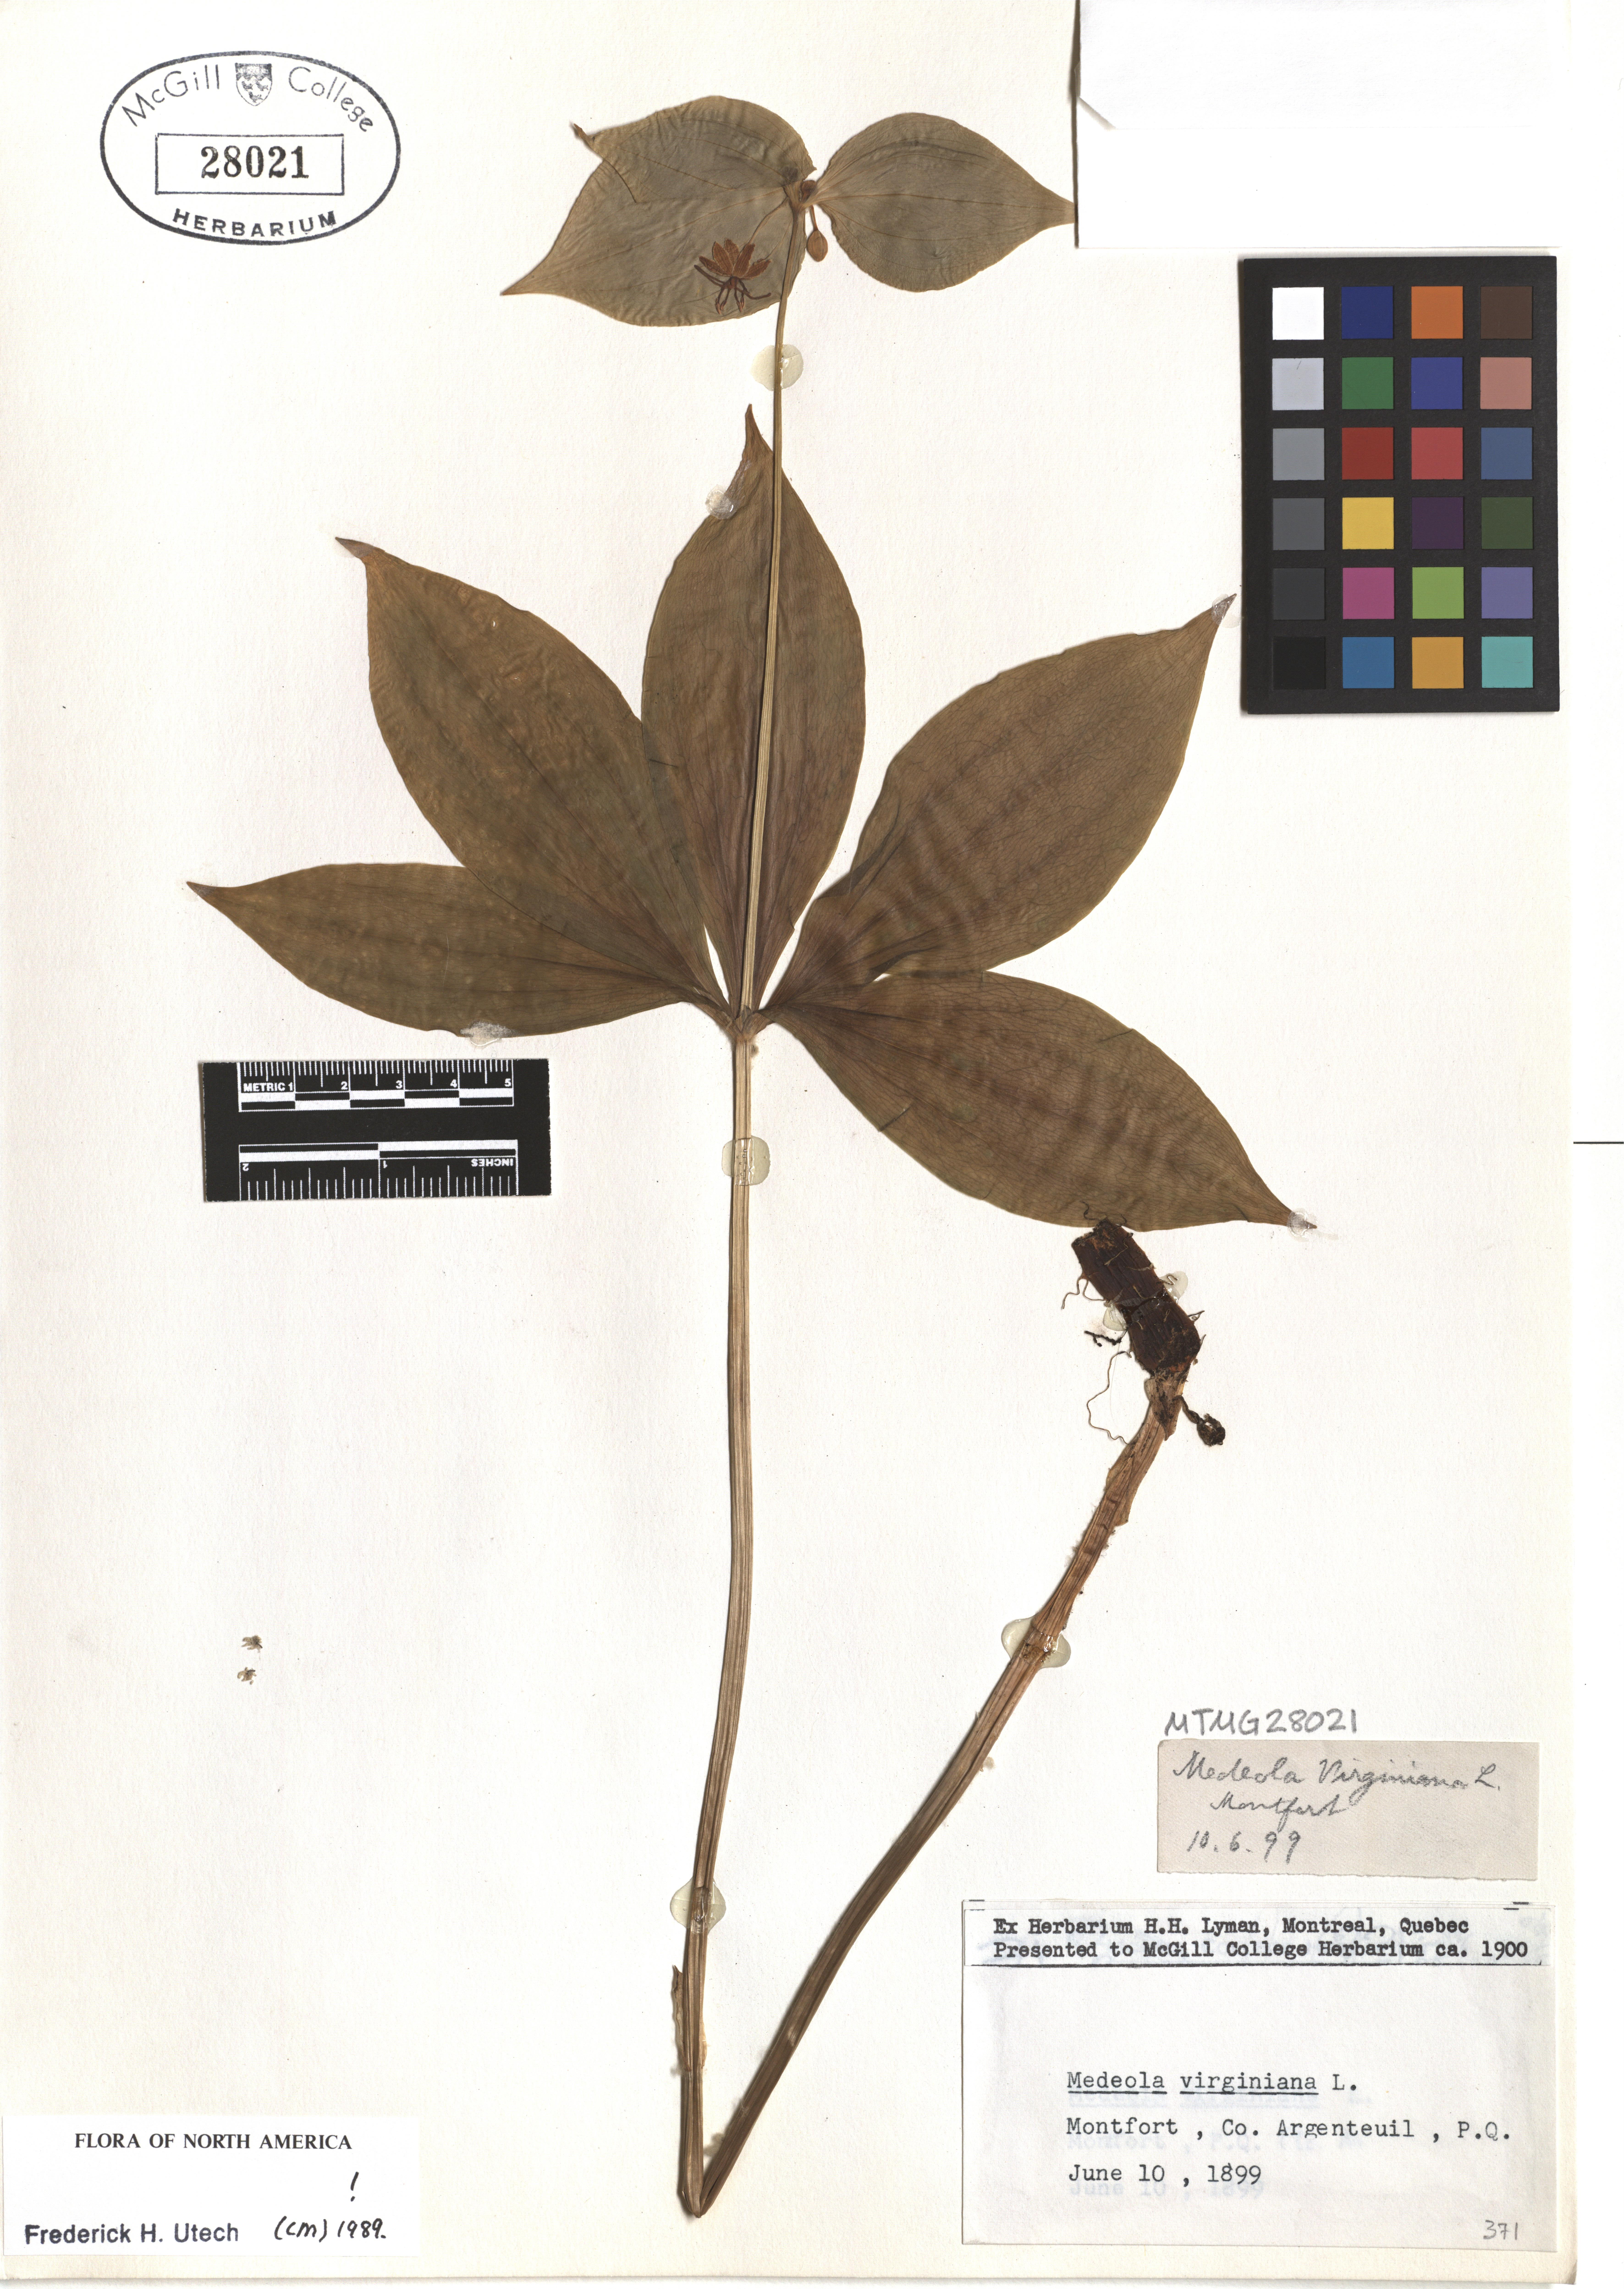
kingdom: Plantae
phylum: Tracheophyta
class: Liliopsida
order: Liliales
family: Liliaceae
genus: Medeola
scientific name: Medeola virginiana
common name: Indian cucumber-root
